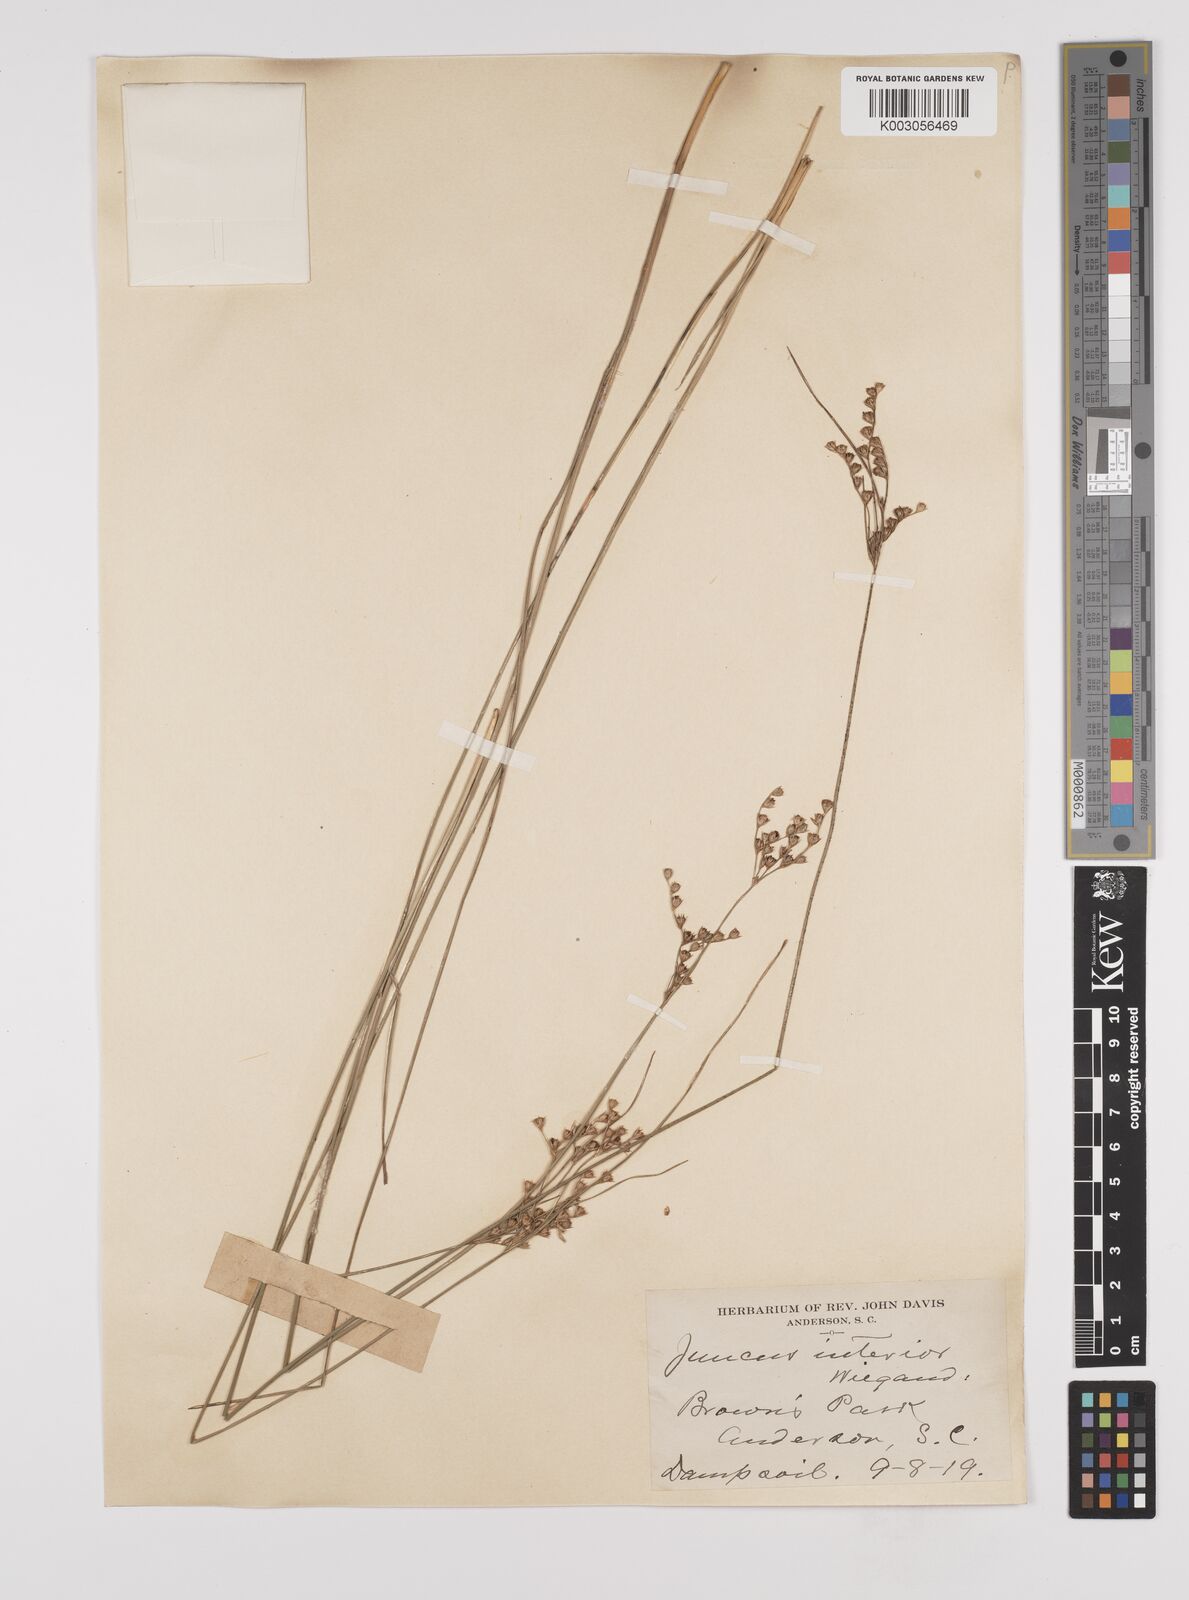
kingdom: Plantae
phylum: Tracheophyta
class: Liliopsida
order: Poales
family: Juncaceae
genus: Juncus
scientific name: Juncus interior
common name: Interior rush
